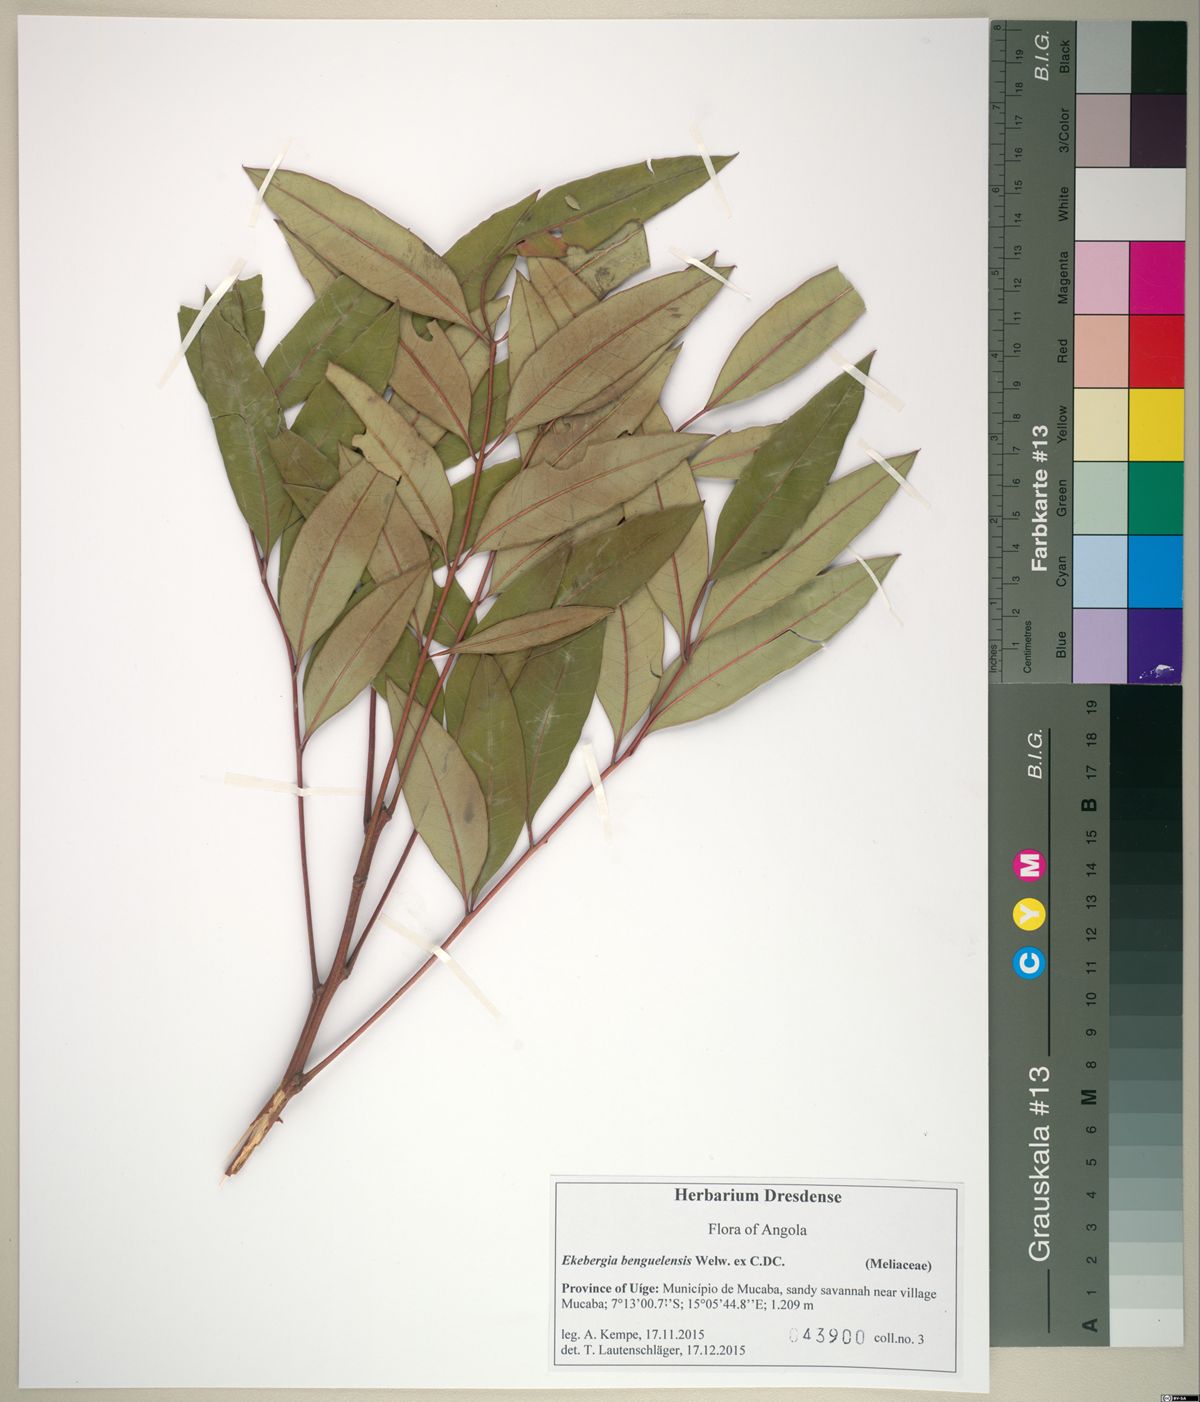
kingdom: Plantae
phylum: Tracheophyta
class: Magnoliopsida
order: Sapindales
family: Meliaceae
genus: Ekebergia
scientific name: Ekebergia benguelensis
